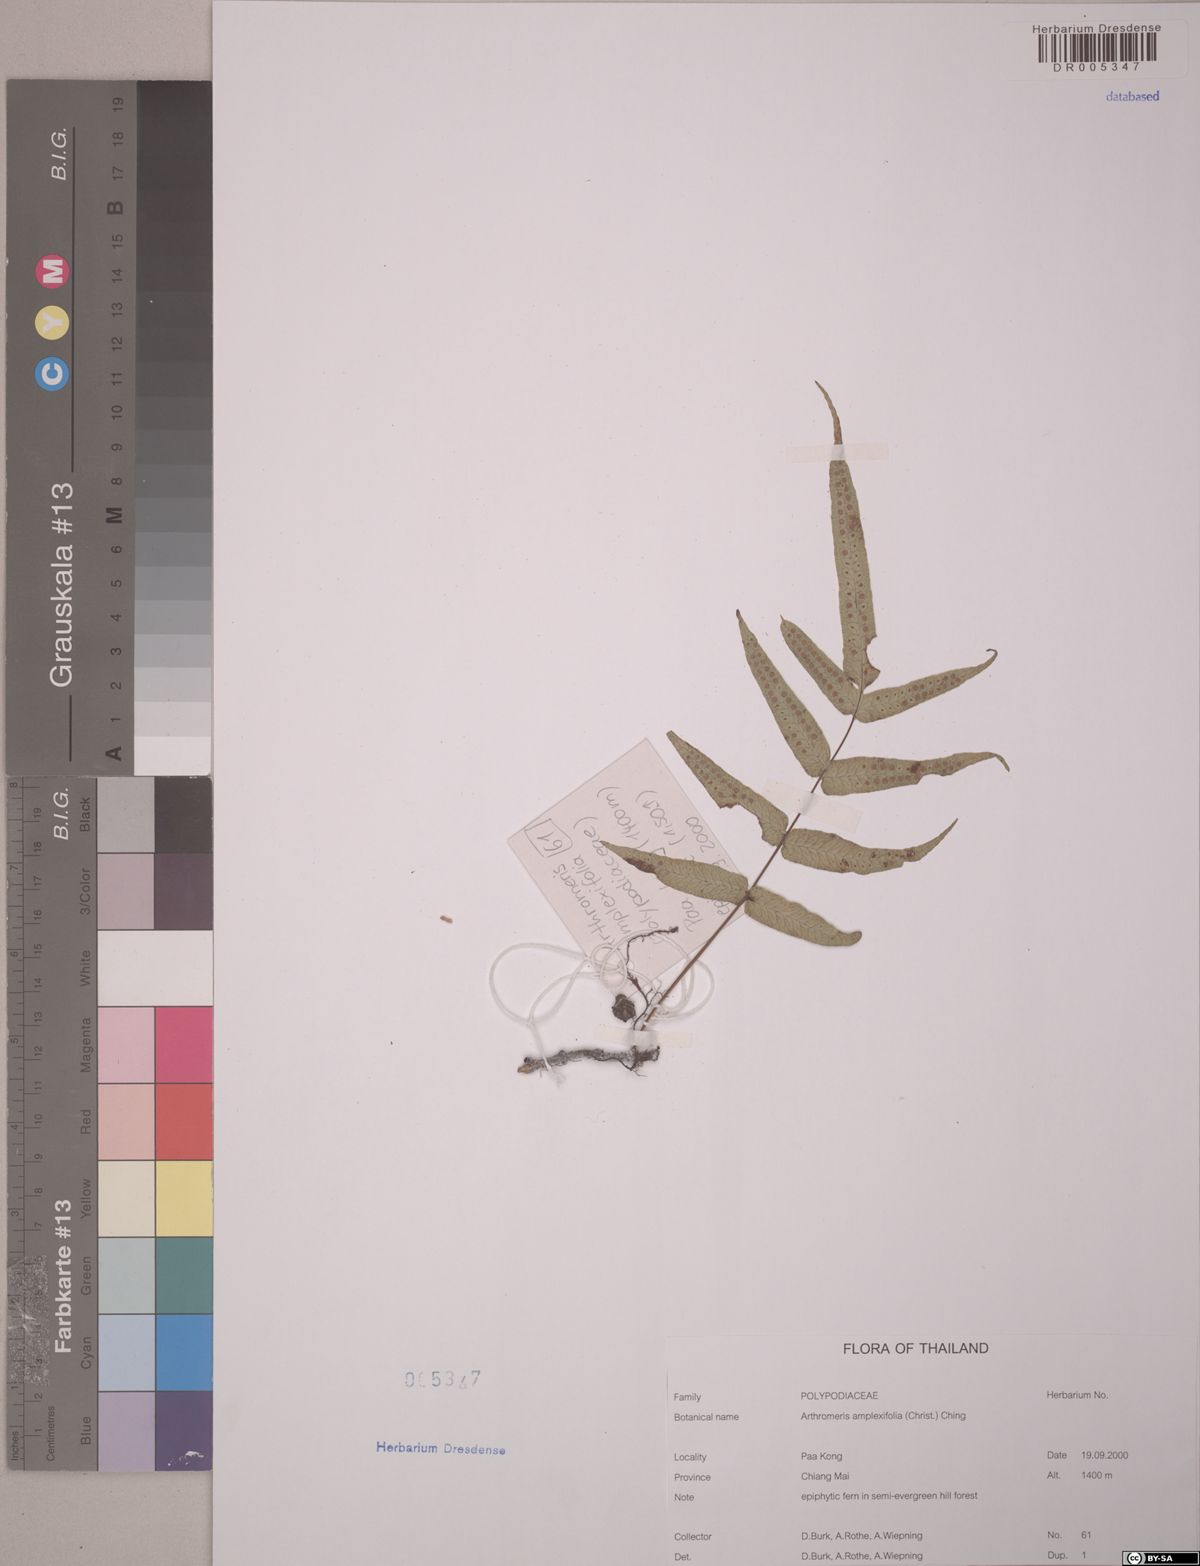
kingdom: Plantae
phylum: Tracheophyta
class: Polypodiopsida
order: Polypodiales
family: Polypodiaceae
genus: Selliguea
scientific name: Selliguea amplexifolia
